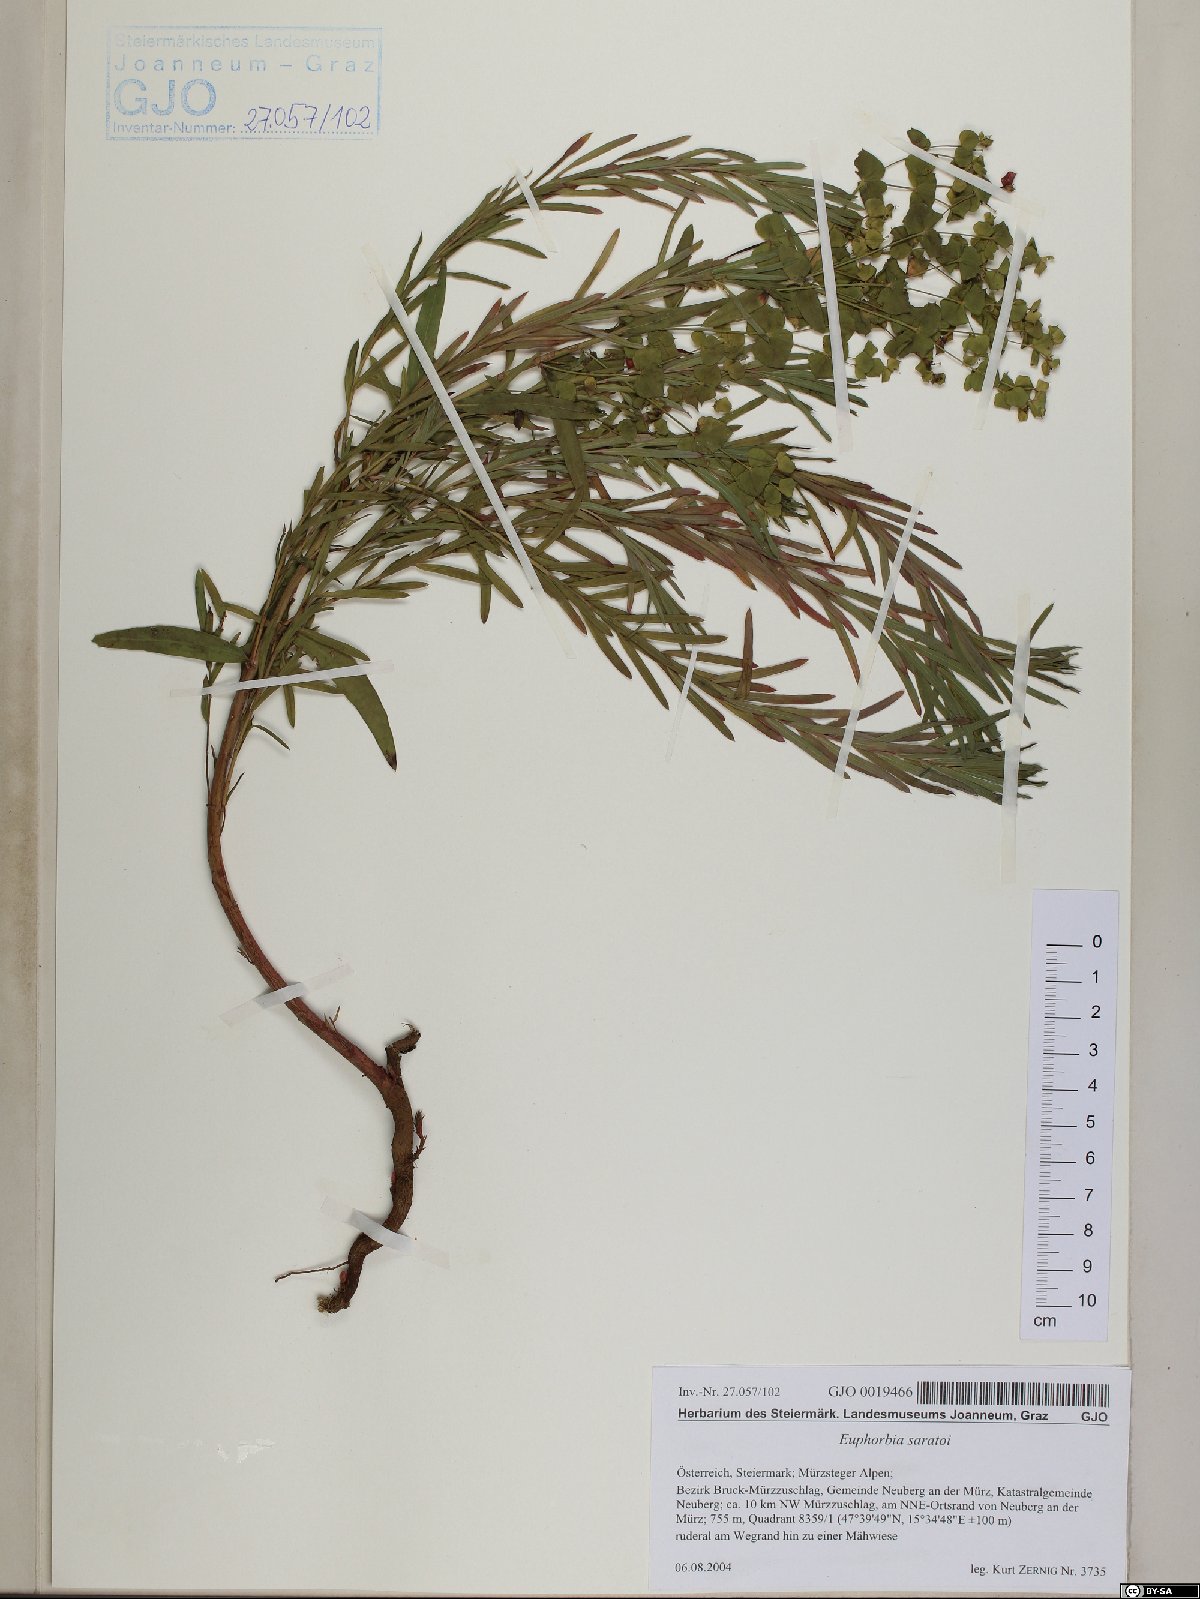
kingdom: Plantae
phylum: Tracheophyta
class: Magnoliopsida
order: Malpighiales
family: Euphorbiaceae
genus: Euphorbia
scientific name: Euphorbia saratoi
